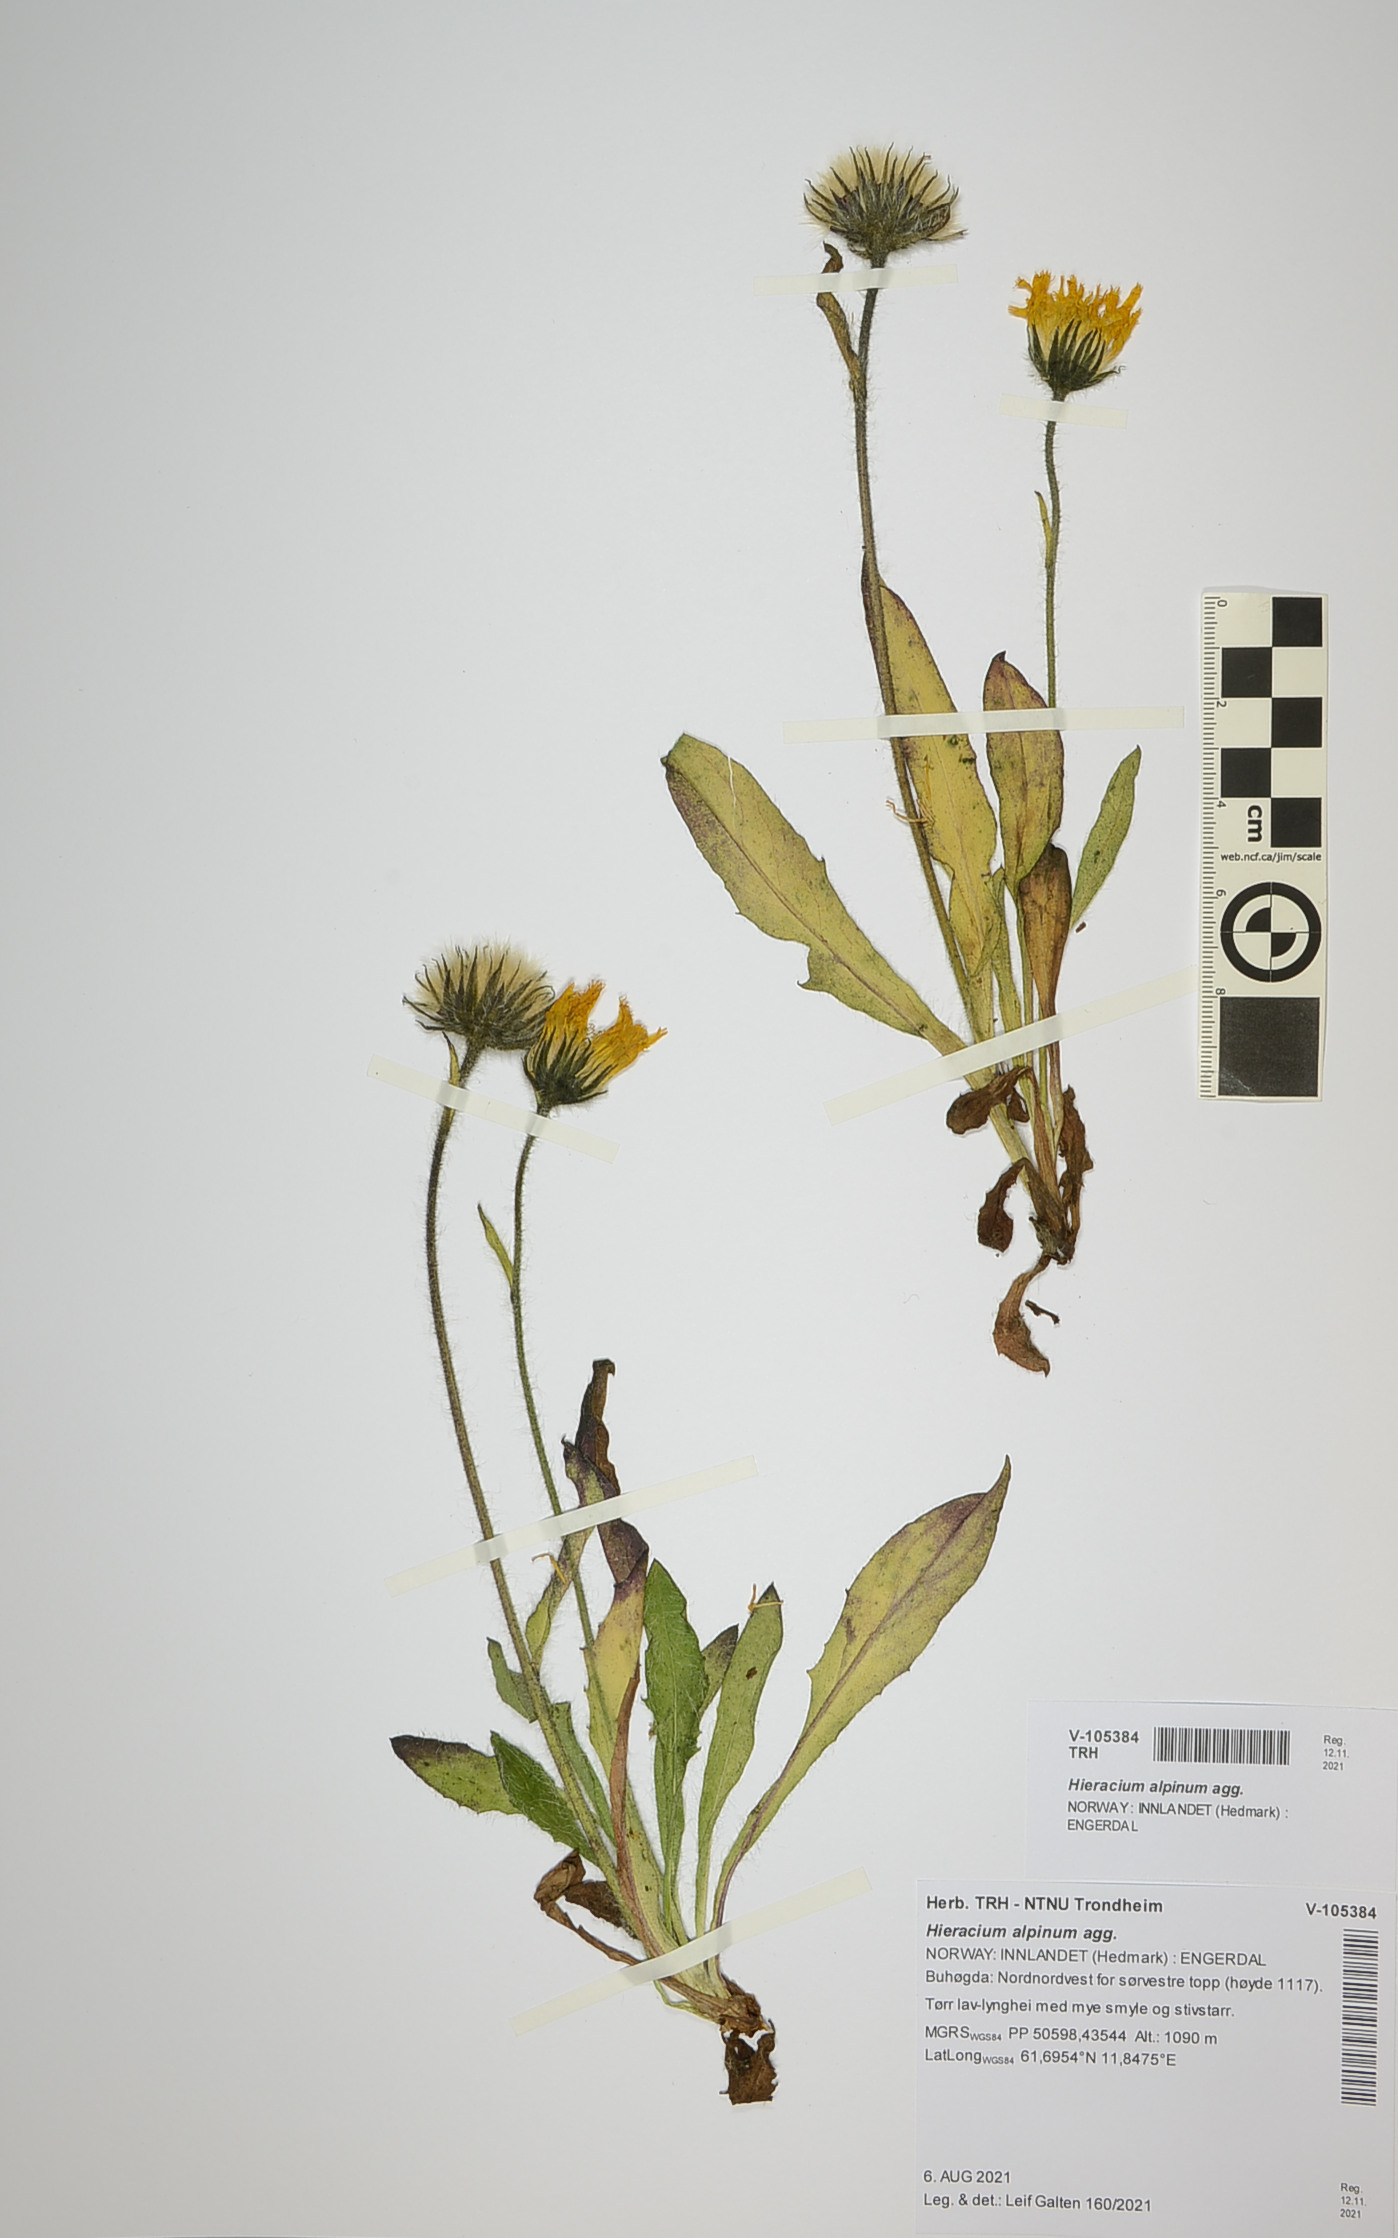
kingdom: Plantae
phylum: Tracheophyta
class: Magnoliopsida
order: Asterales
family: Asteraceae
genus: Hieracium
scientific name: Hieracium
